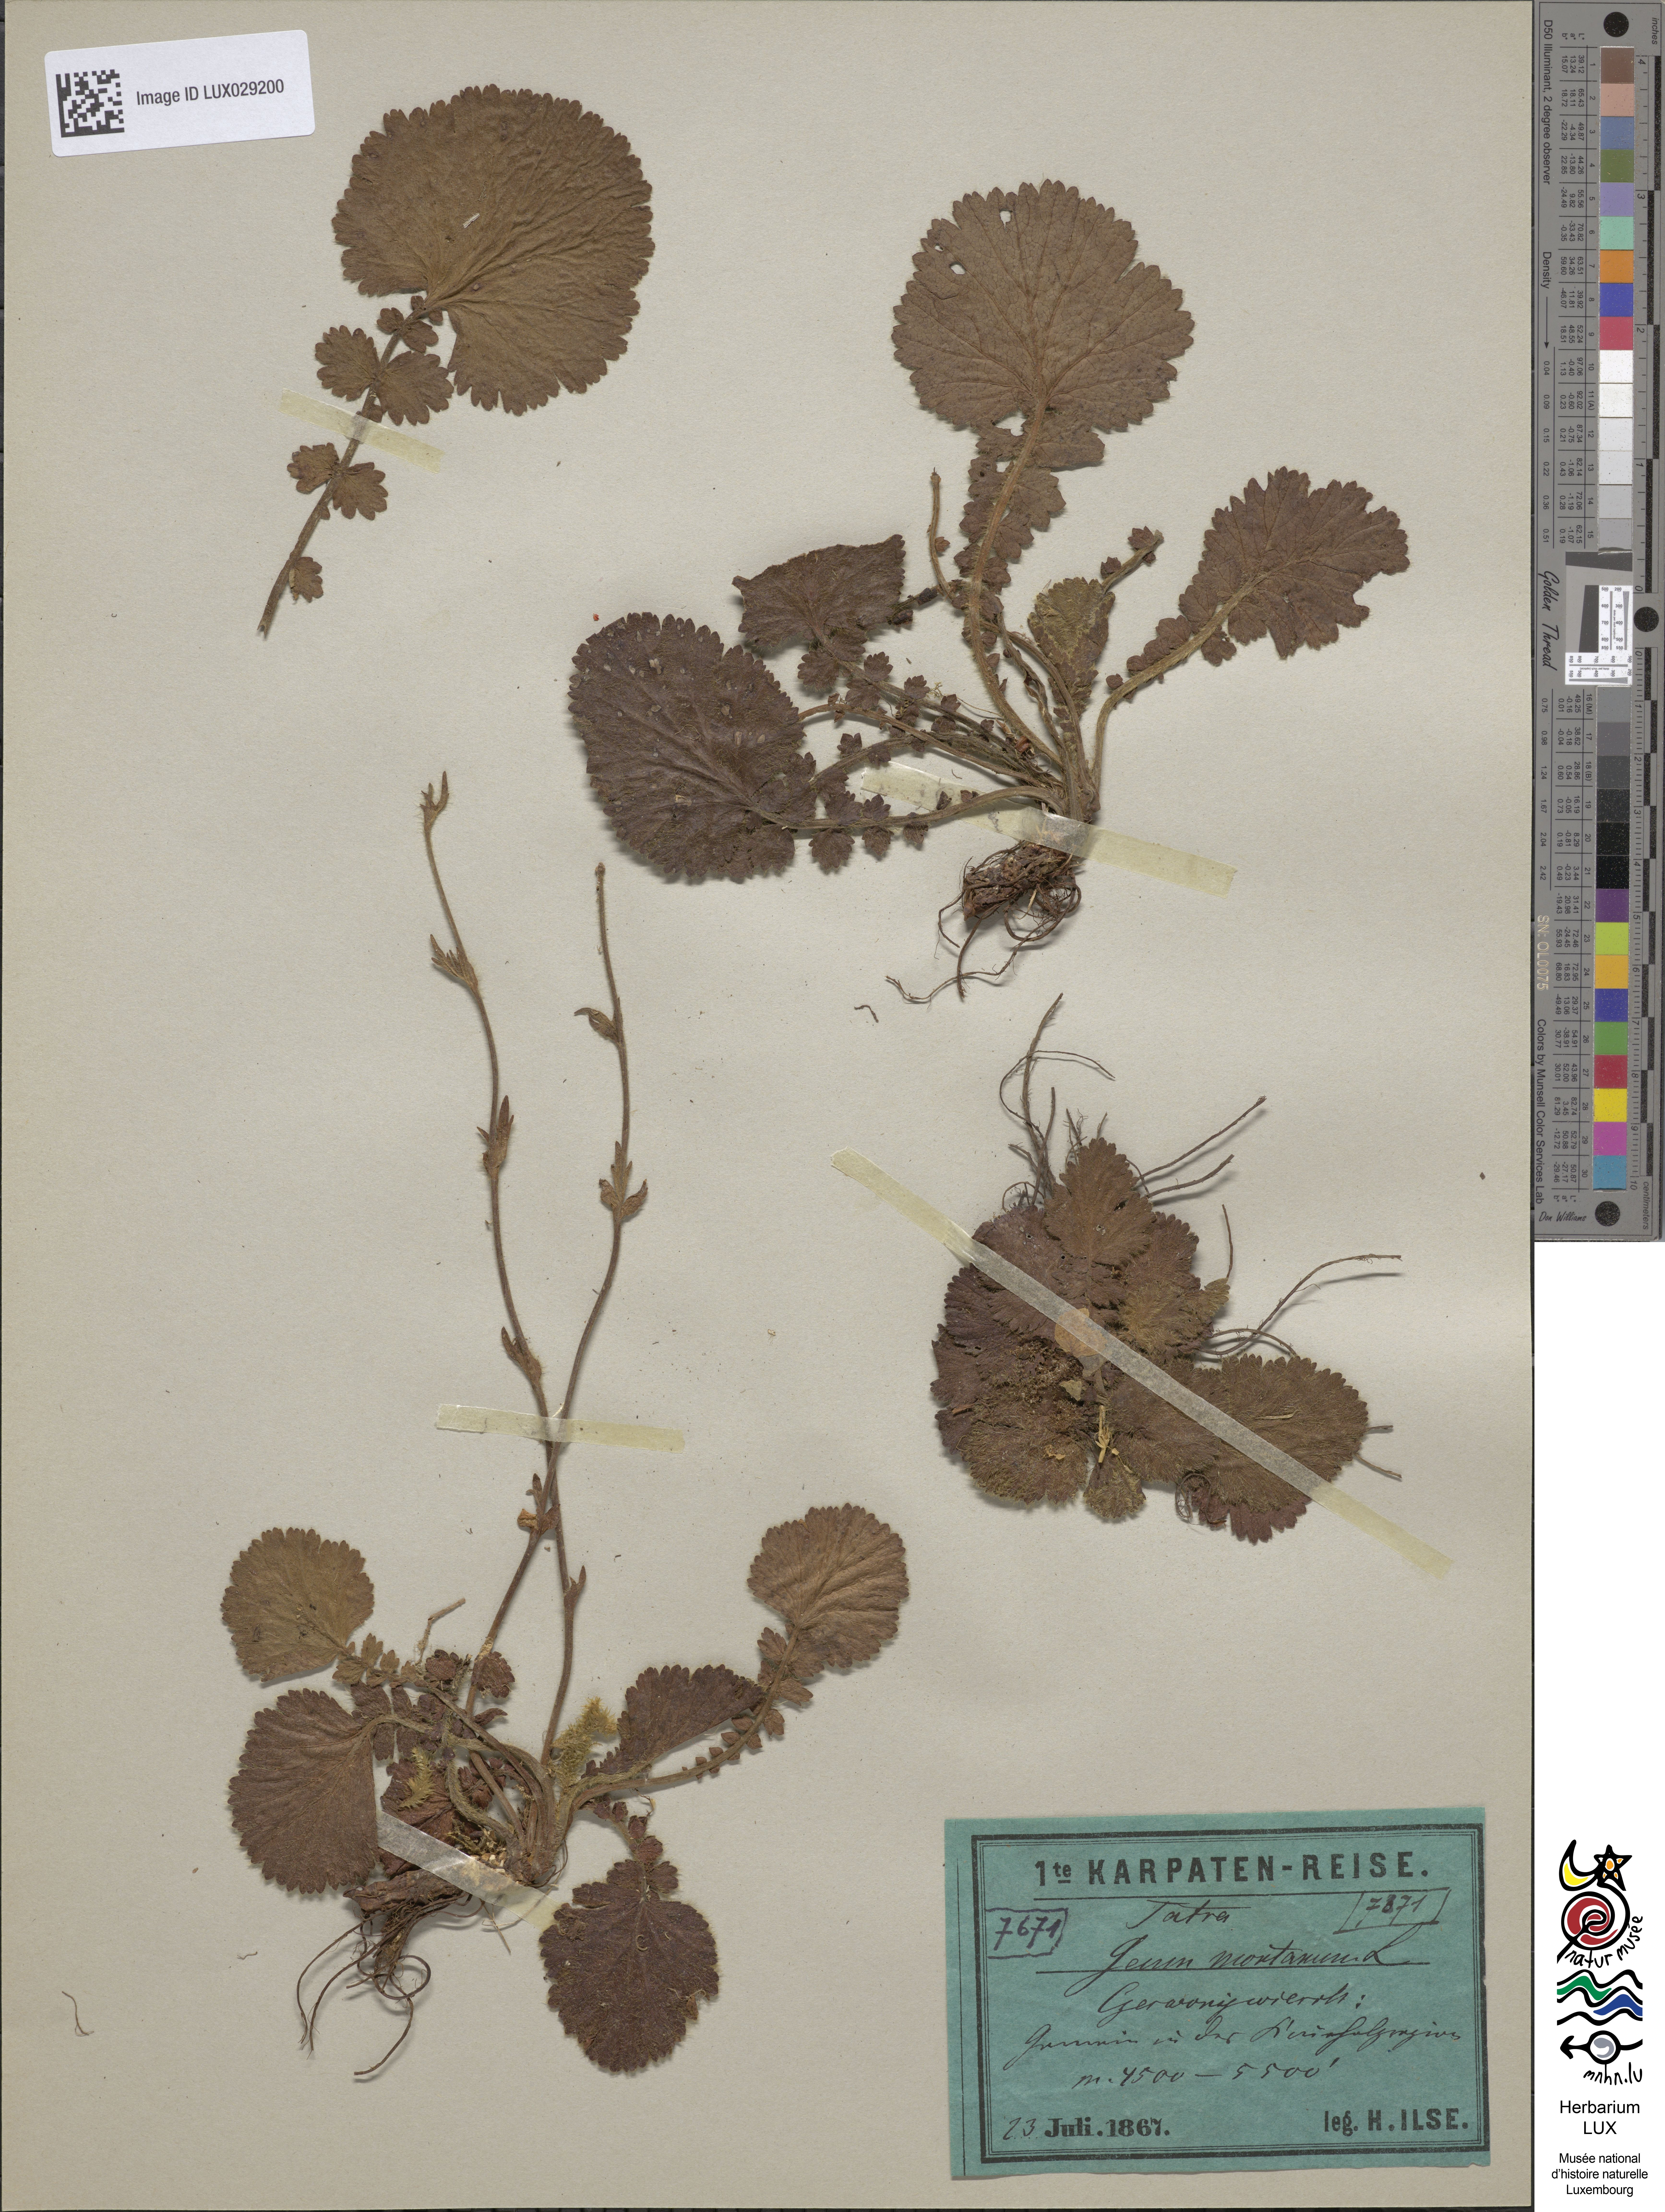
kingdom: Plantae
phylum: Tracheophyta
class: Magnoliopsida
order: Rosales
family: Rosaceae
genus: Geum
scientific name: Geum montanum
